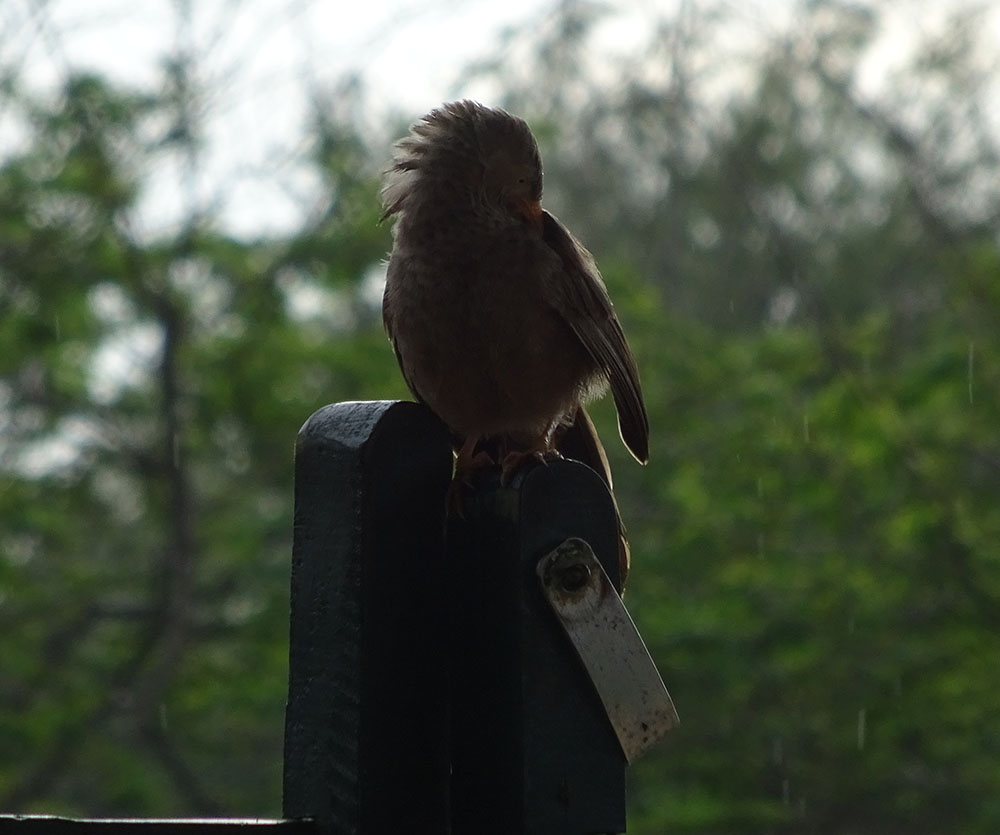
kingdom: Animalia
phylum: Chordata
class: Aves
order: Passeriformes
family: Leiothrichidae
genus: Turdoides
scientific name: Turdoides rufescens
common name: Orange-billed babbler
